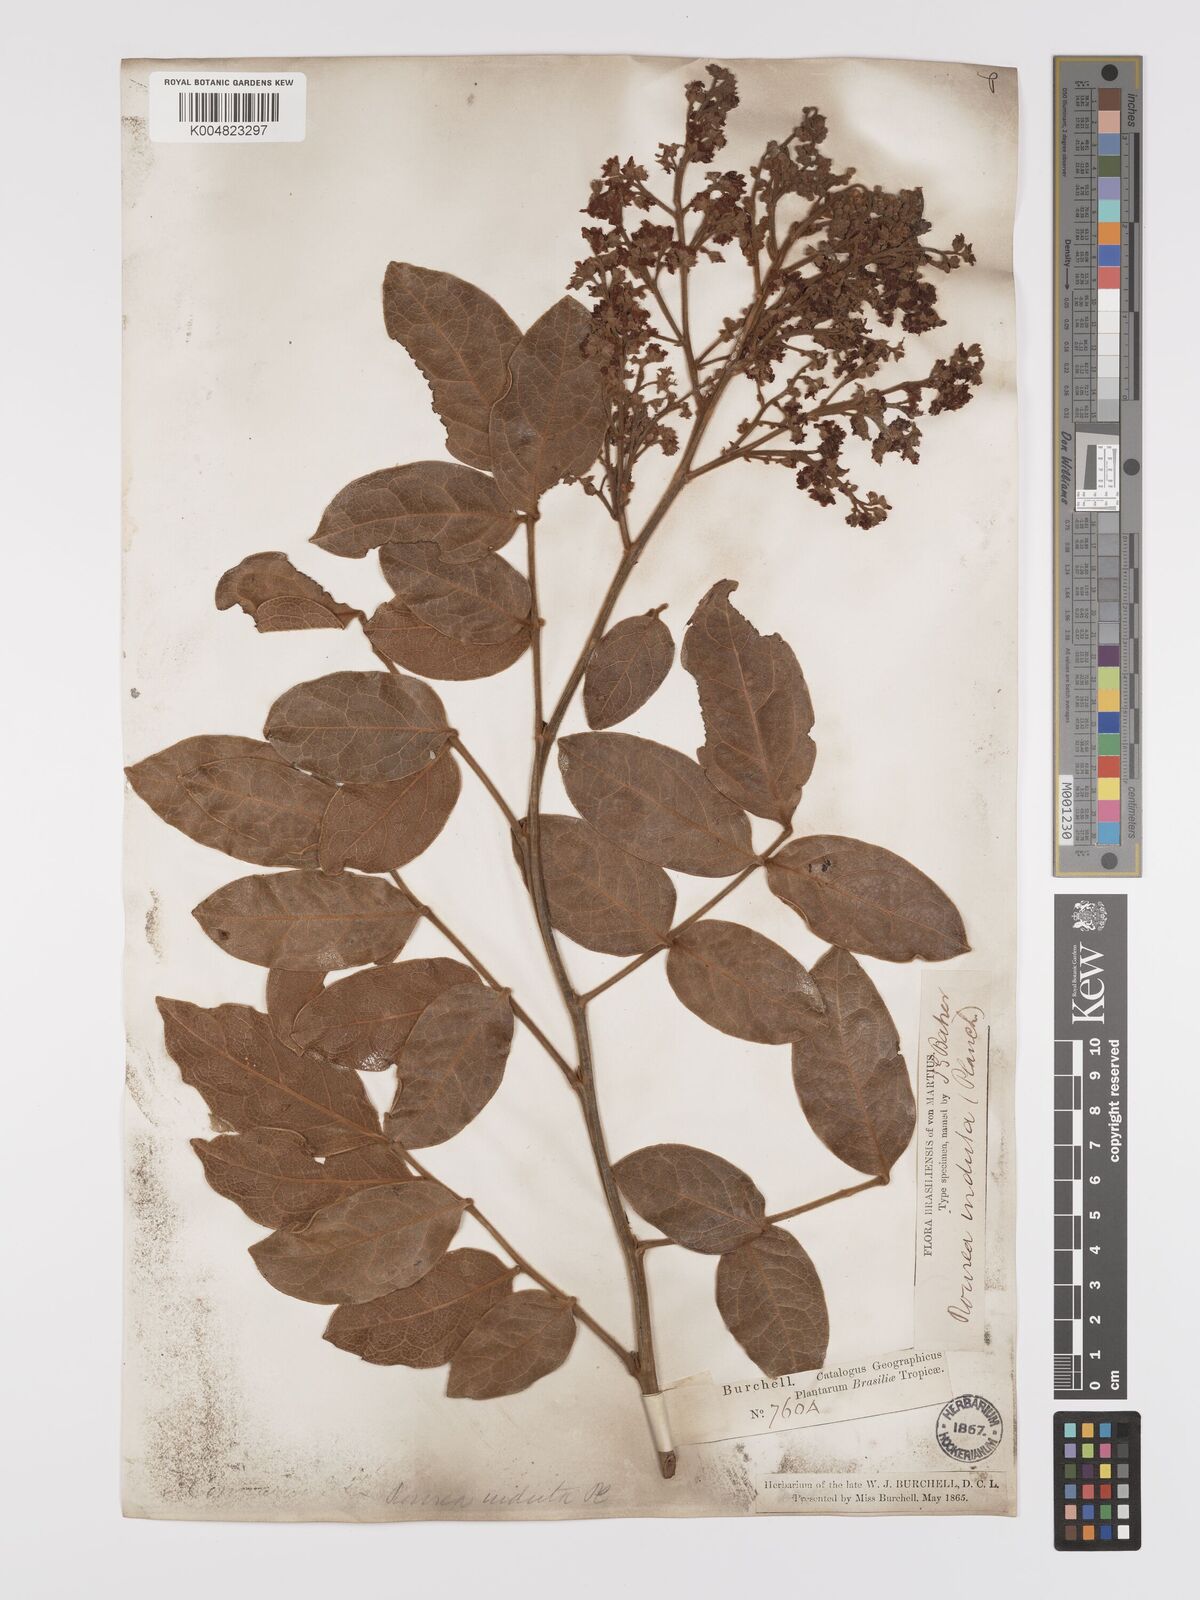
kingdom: Plantae
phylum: Tracheophyta
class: Magnoliopsida
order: Oxalidales
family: Connaraceae
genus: Rourea
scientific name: Rourea induta
